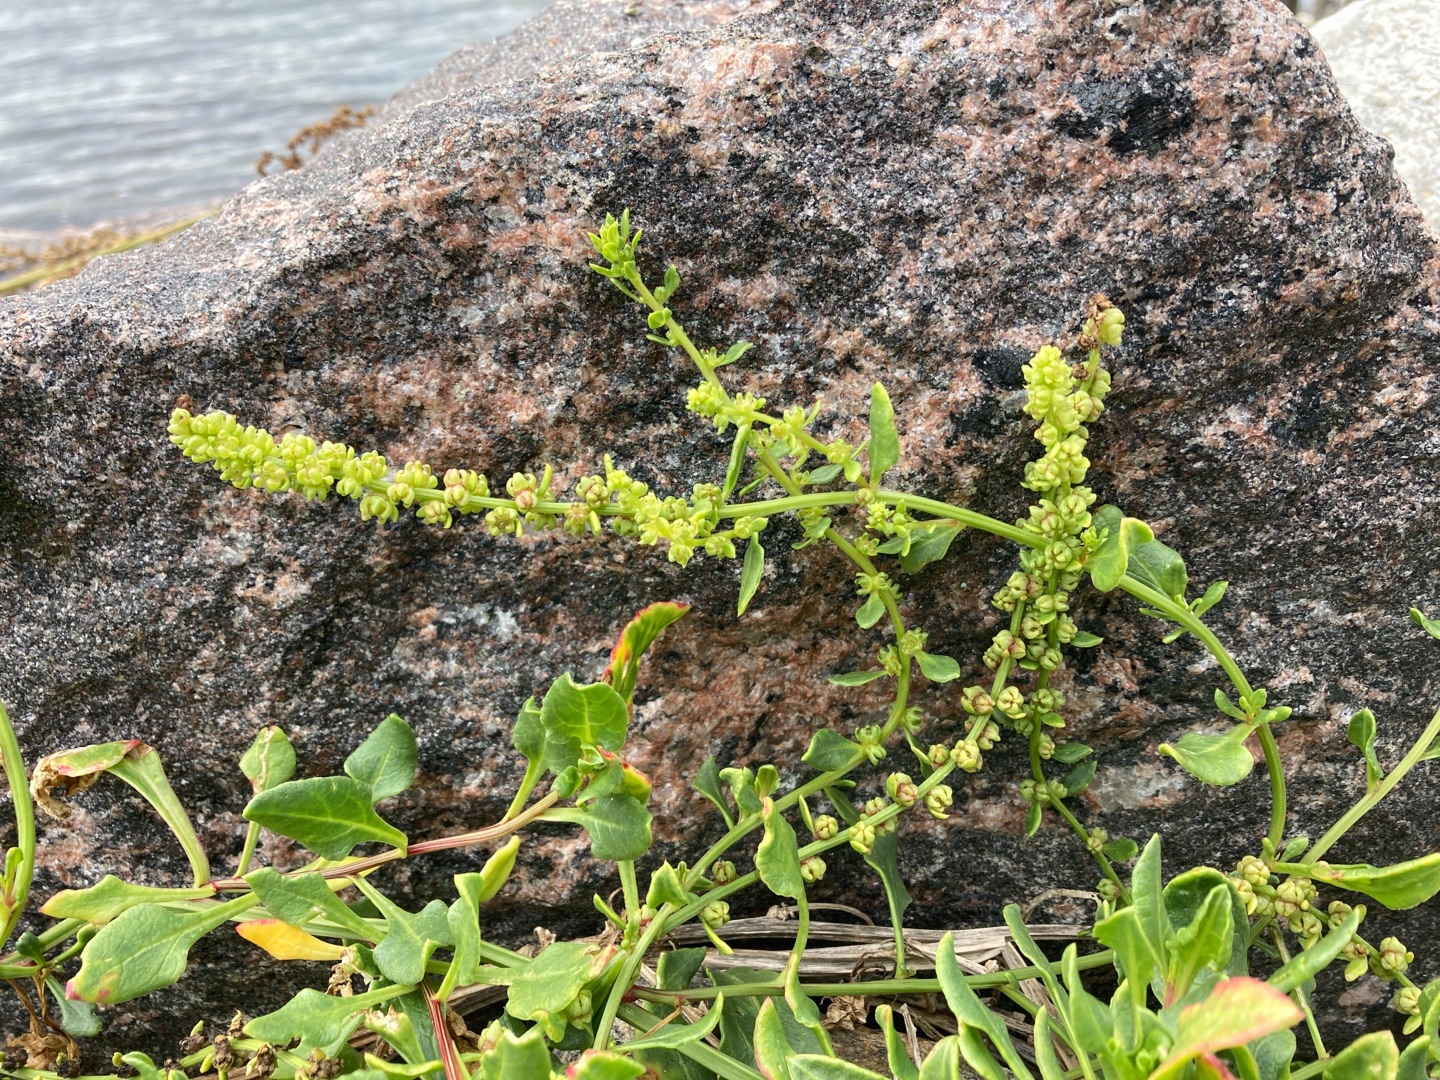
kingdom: Plantae
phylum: Tracheophyta
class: Magnoliopsida
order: Caryophyllales
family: Amaranthaceae
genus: Beta
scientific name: Beta vulgaris
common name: Bede
